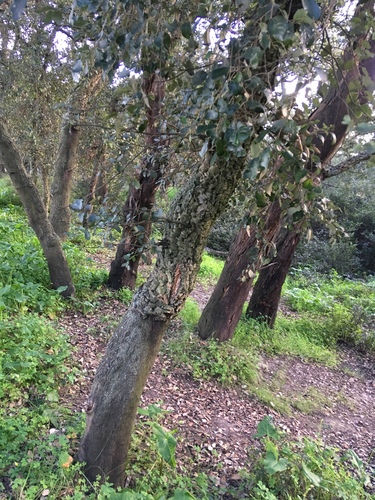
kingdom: Plantae
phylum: Tracheophyta
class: Magnoliopsida
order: Fagales
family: Fagaceae
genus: Quercus
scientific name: Quercus suber
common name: Cork oak
